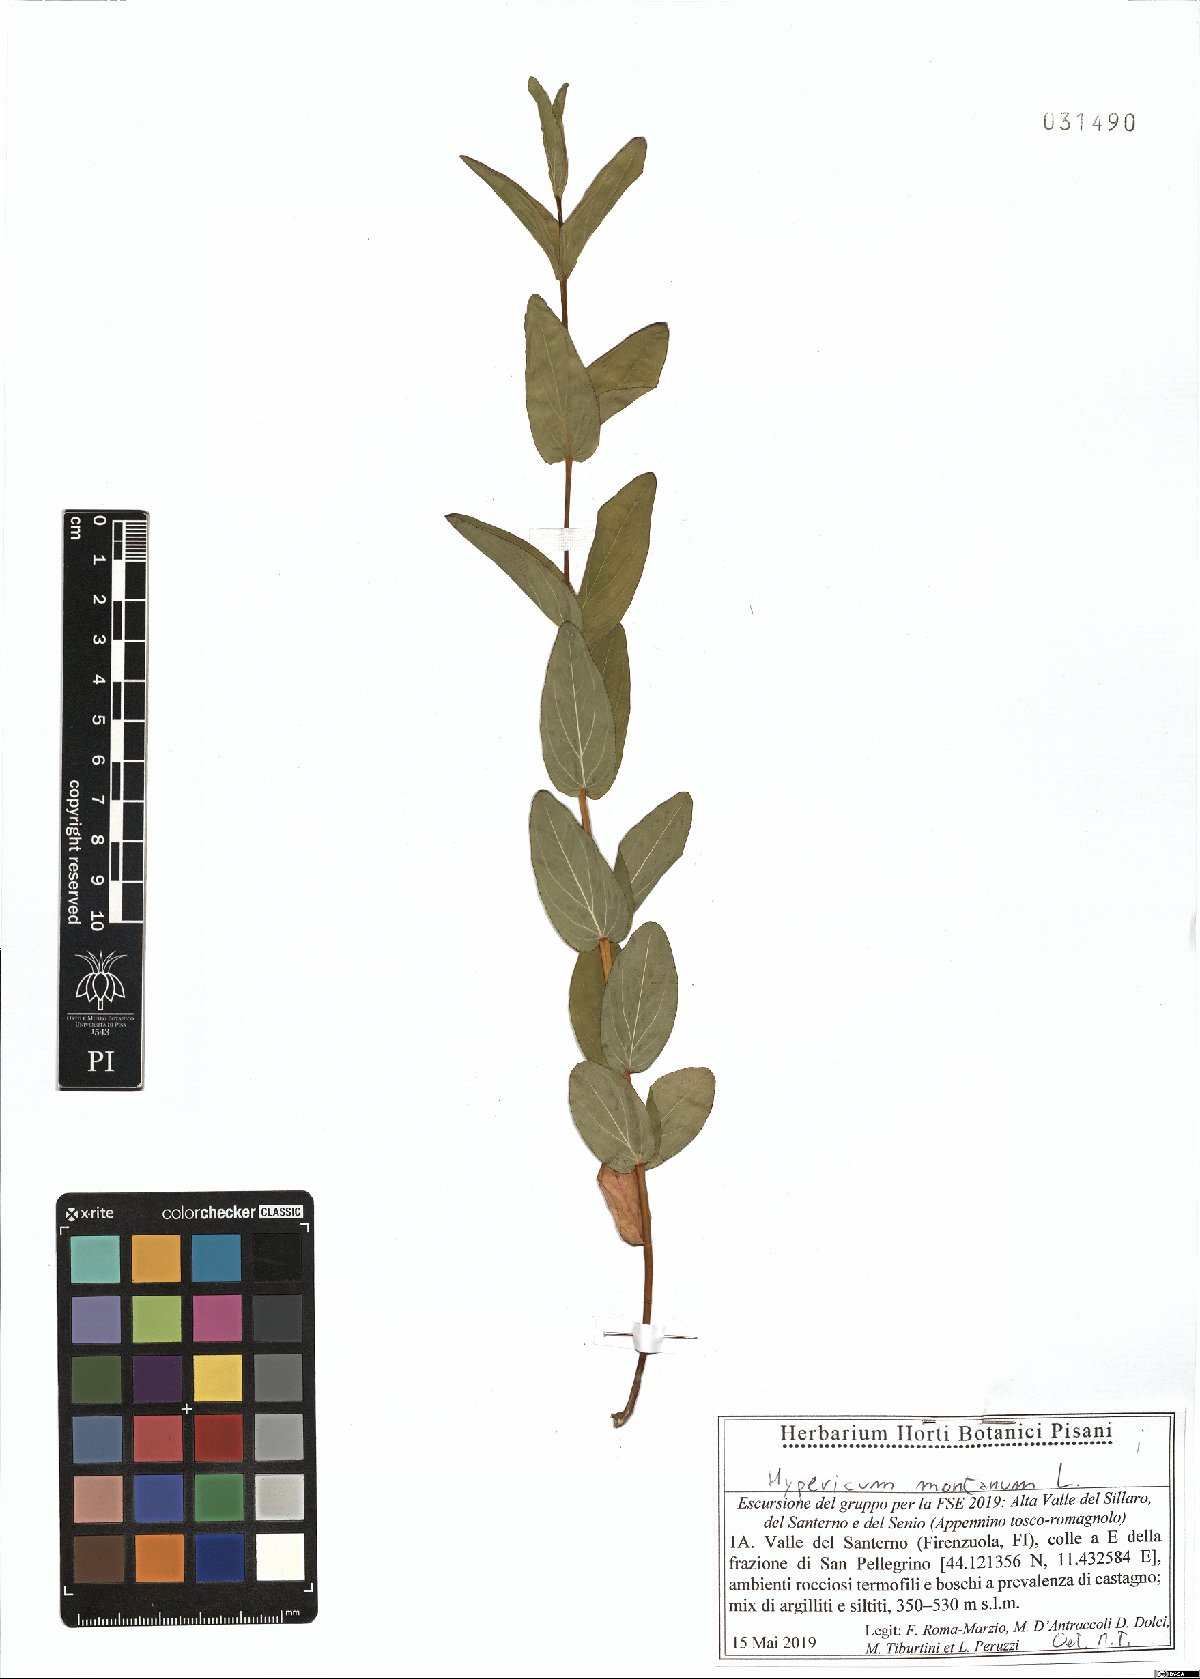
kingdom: Plantae
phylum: Tracheophyta
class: Magnoliopsida
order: Malpighiales
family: Hypericaceae
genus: Hypericum
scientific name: Hypericum montanum
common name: Pale st. john's-wort
